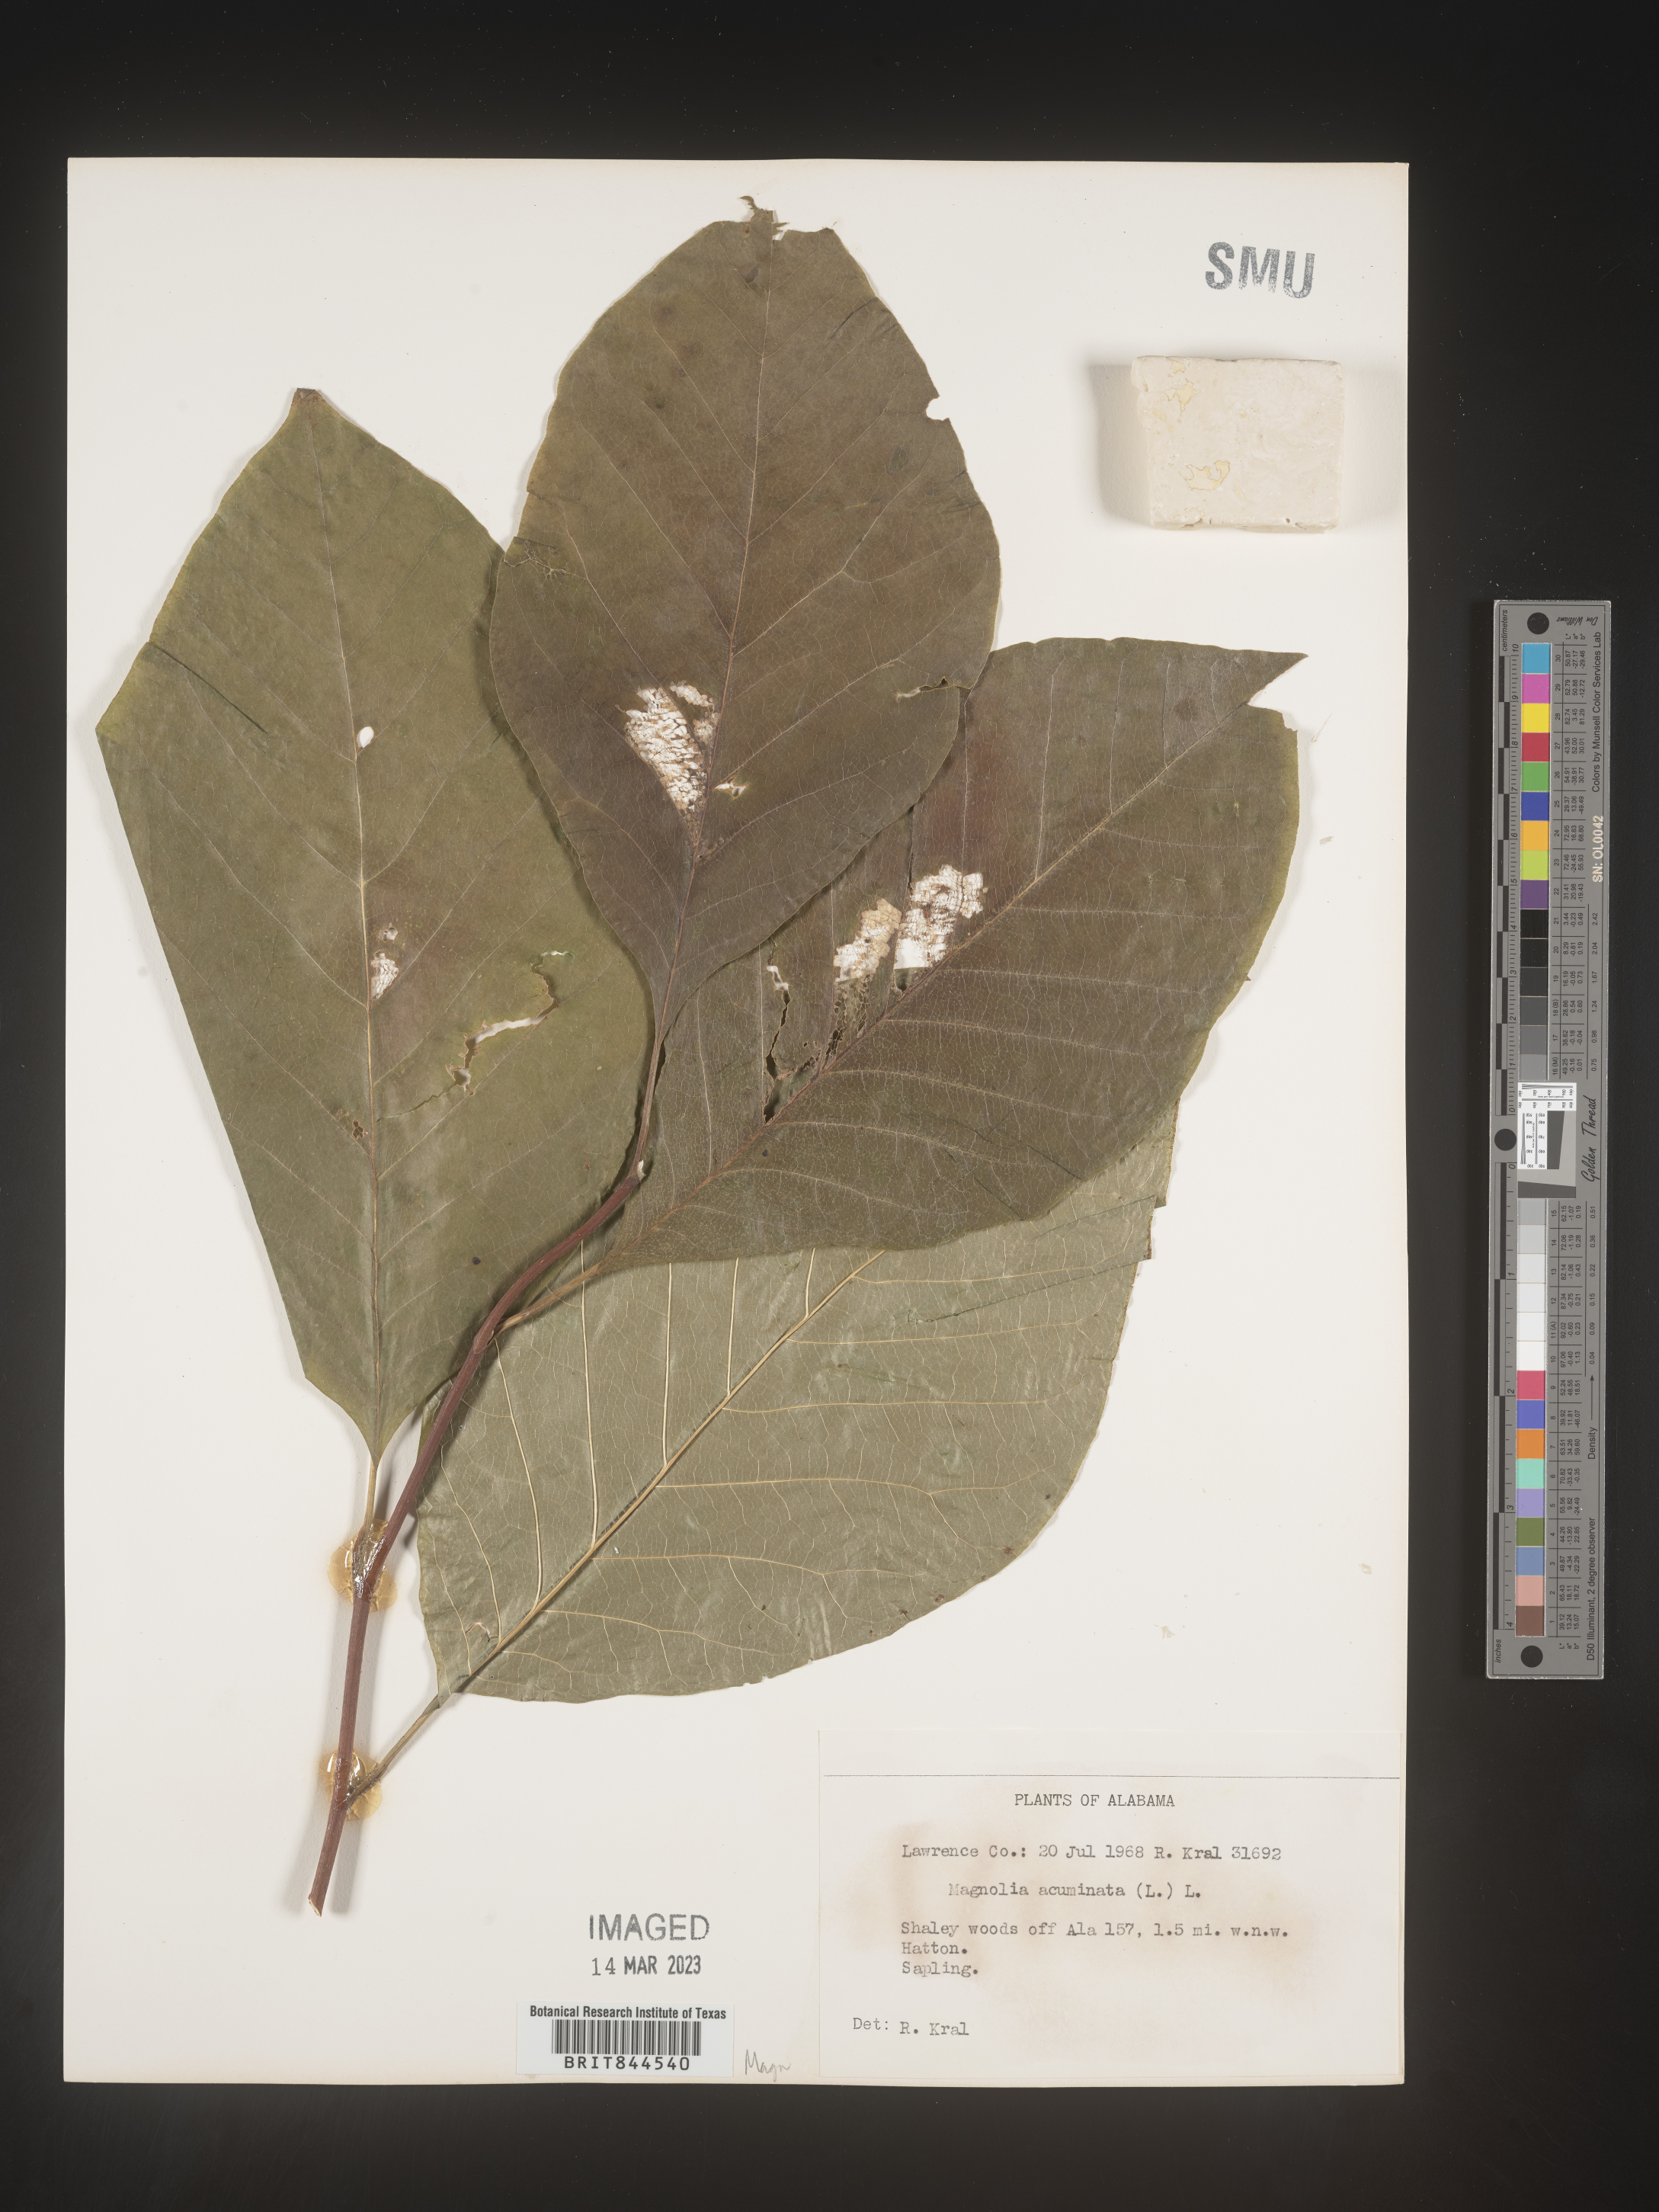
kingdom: Plantae
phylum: Tracheophyta
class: Magnoliopsida
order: Magnoliales
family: Magnoliaceae
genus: Magnolia
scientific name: Magnolia acuminata
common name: Cucumber magnolia
